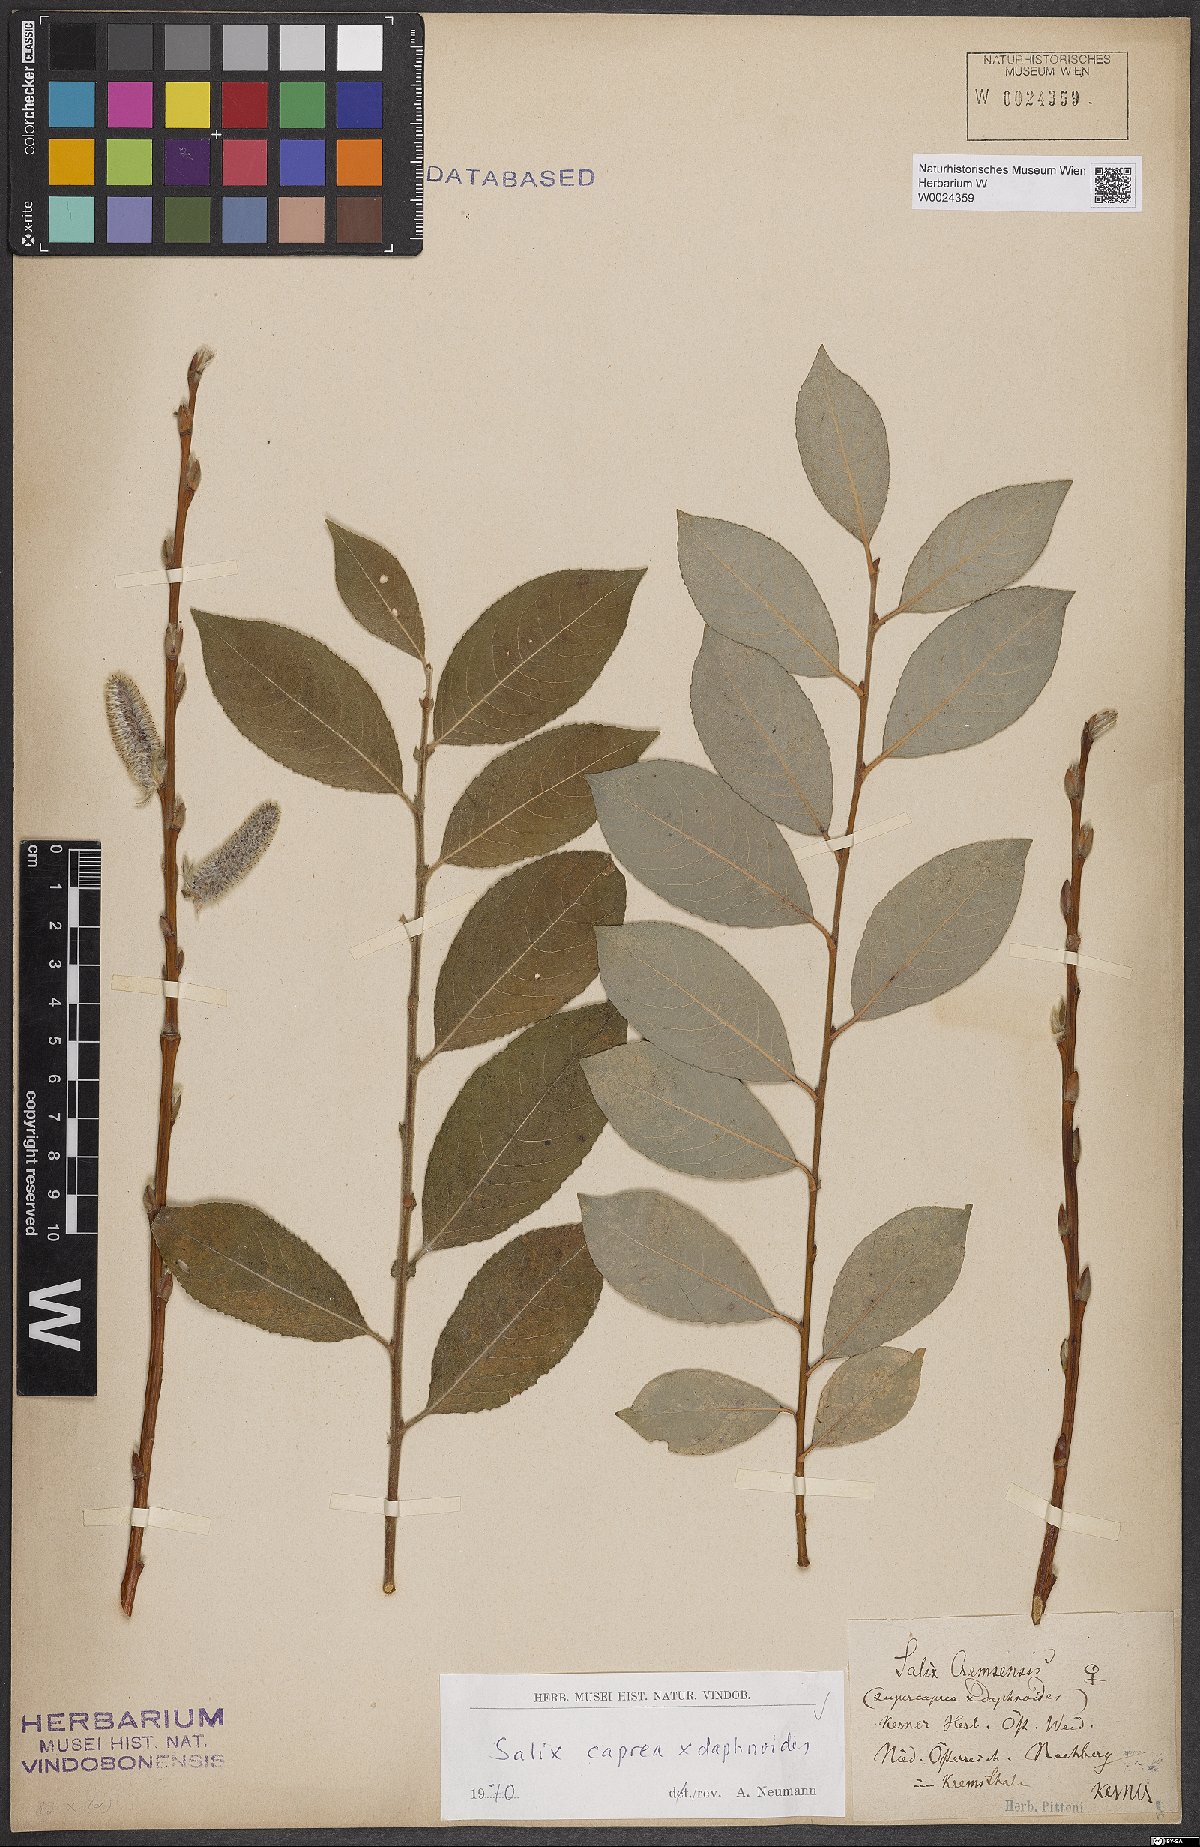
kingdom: Plantae
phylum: Tracheophyta
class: Magnoliopsida
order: Malpighiales
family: Salicaceae
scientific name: Salicaceae
